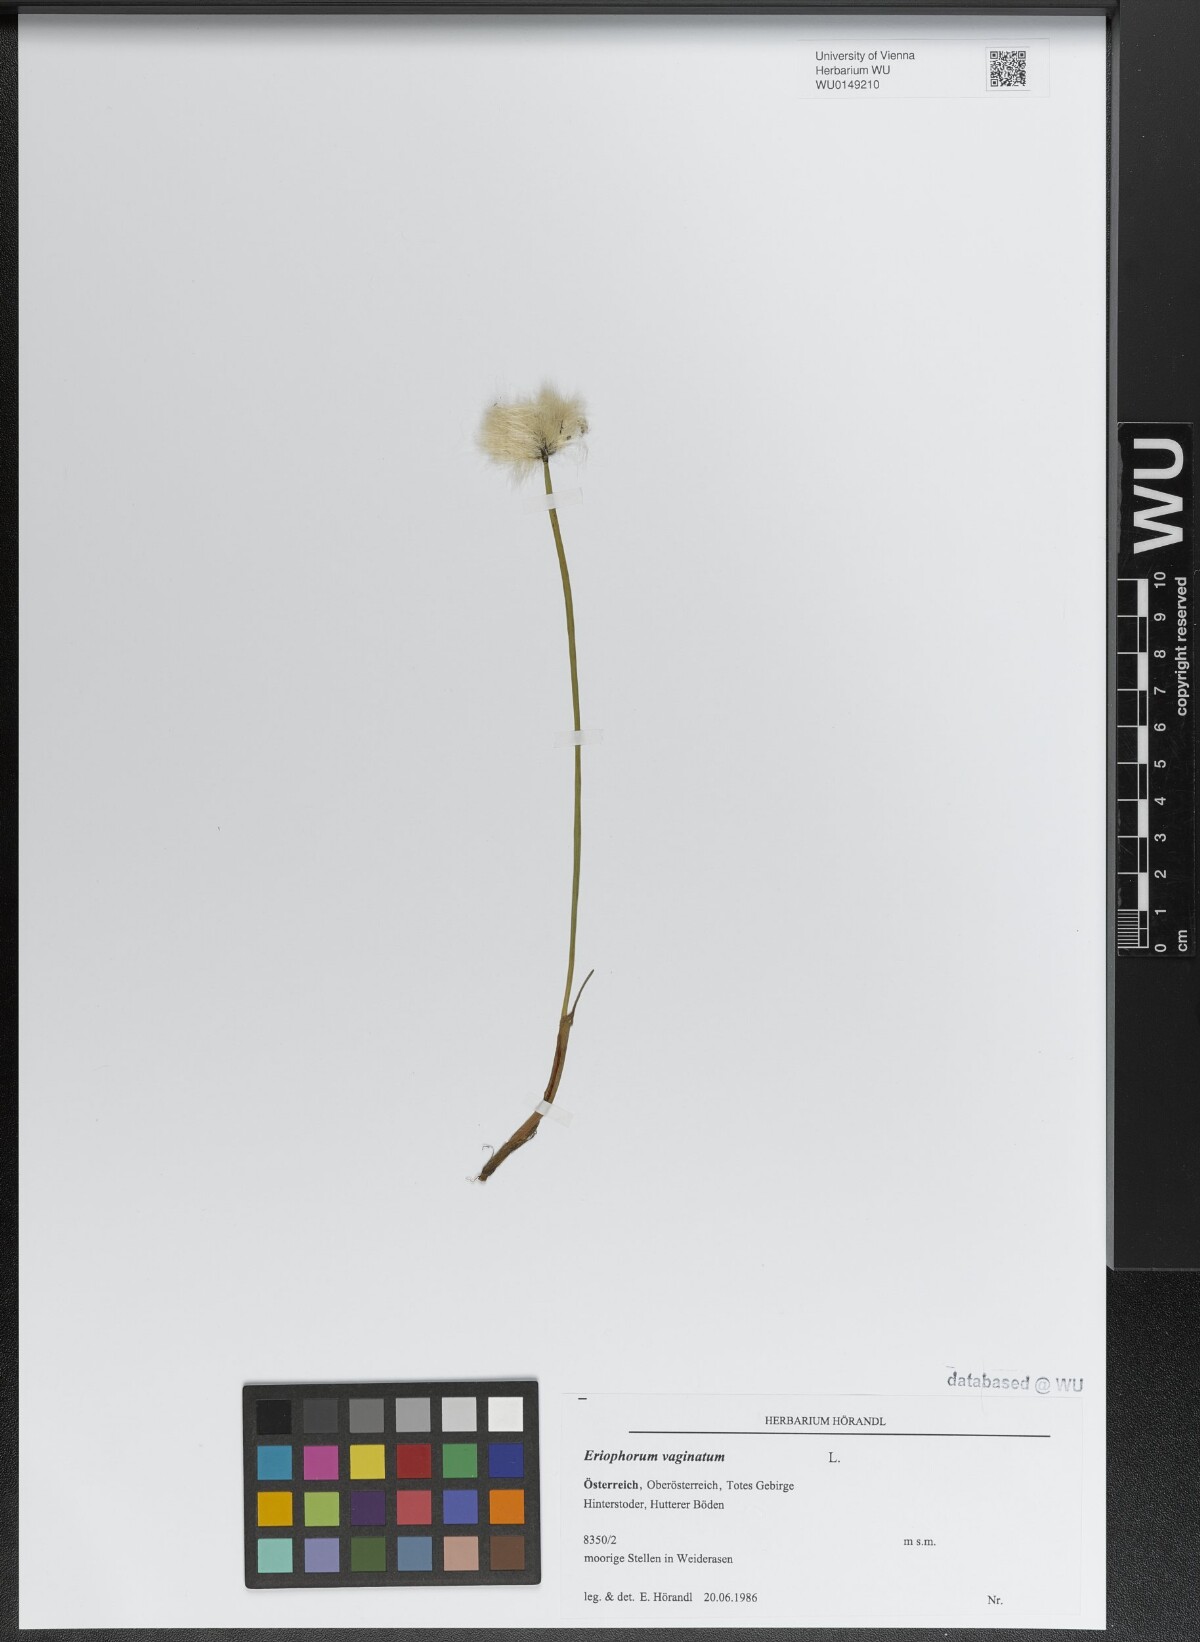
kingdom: Plantae
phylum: Tracheophyta
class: Liliopsida
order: Poales
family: Cyperaceae
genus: Eriophorum
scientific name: Eriophorum vaginatum
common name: Hare's-tail cottongrass
